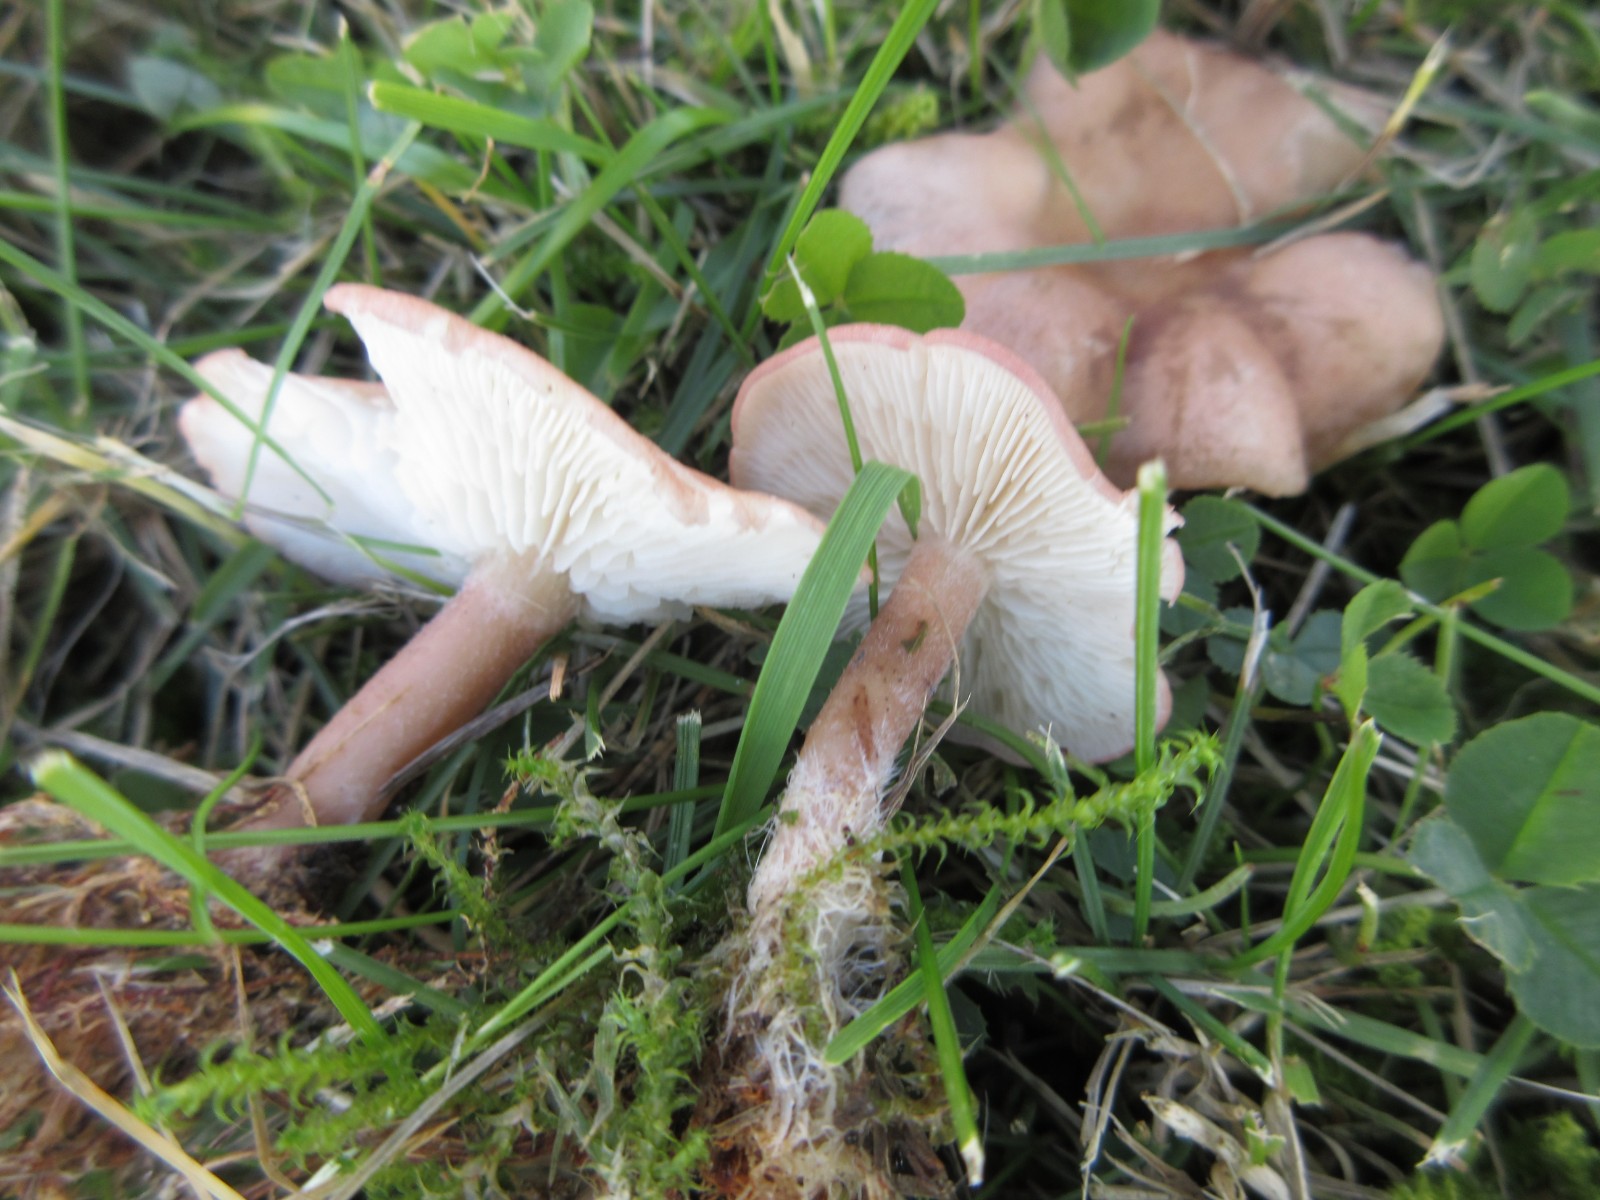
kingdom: Fungi
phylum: Basidiomycota
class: Agaricomycetes
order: Agaricales
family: Lyophyllaceae
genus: Calocybe
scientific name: Calocybe carnea
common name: rosa fagerhat
